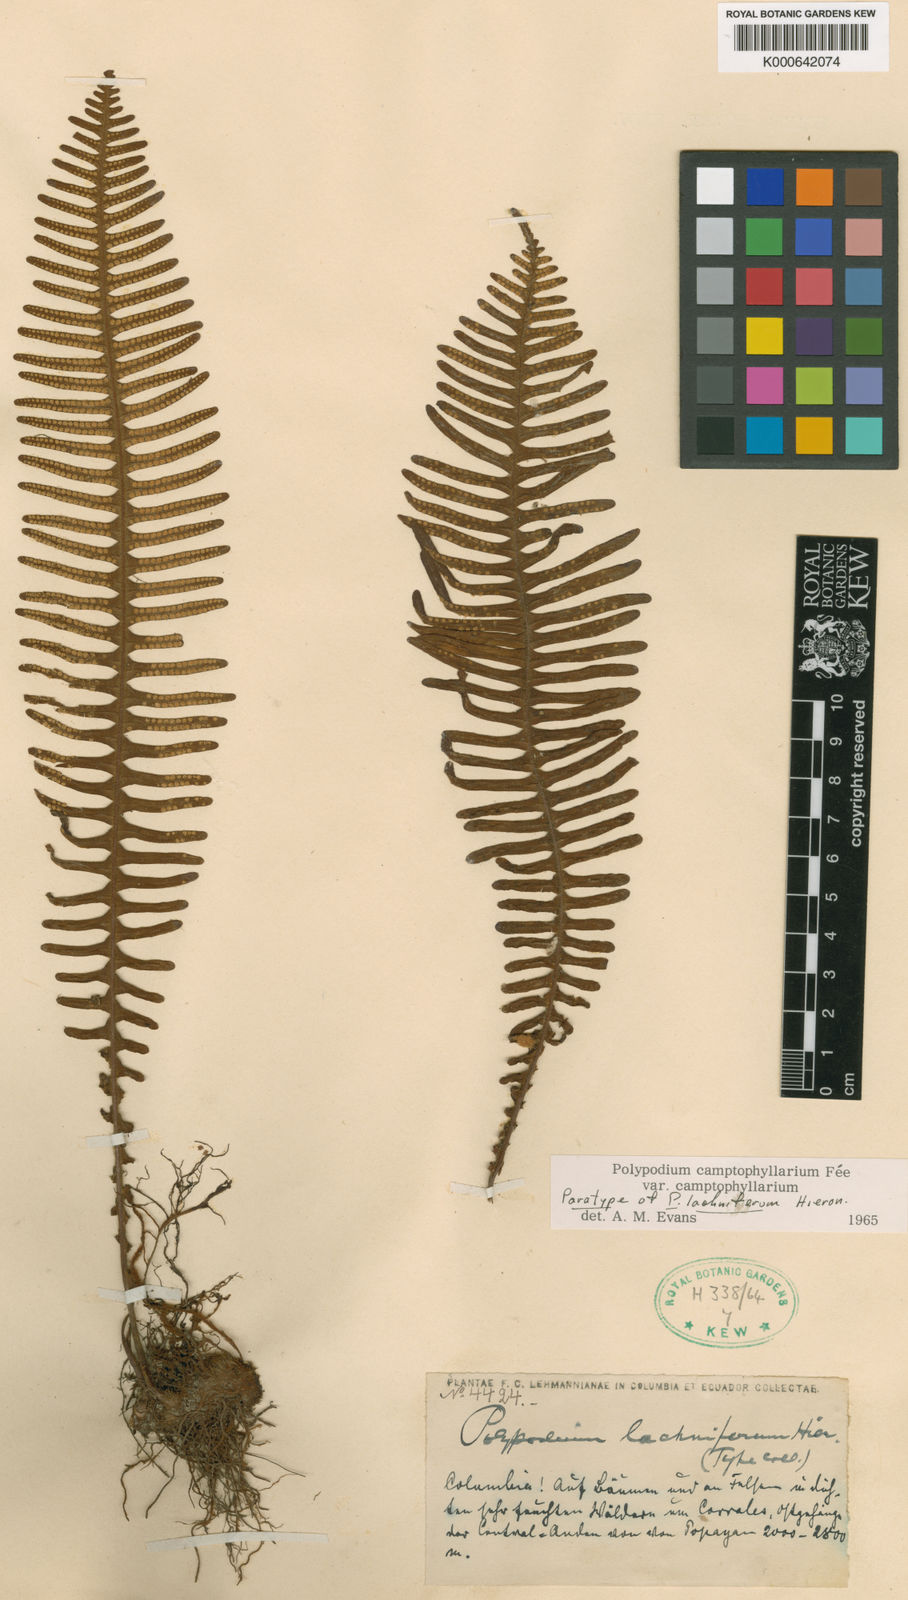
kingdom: Plantae
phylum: Tracheophyta
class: Polypodiopsida
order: Polypodiales
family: Polypodiaceae
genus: Pecluma
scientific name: Pecluma
